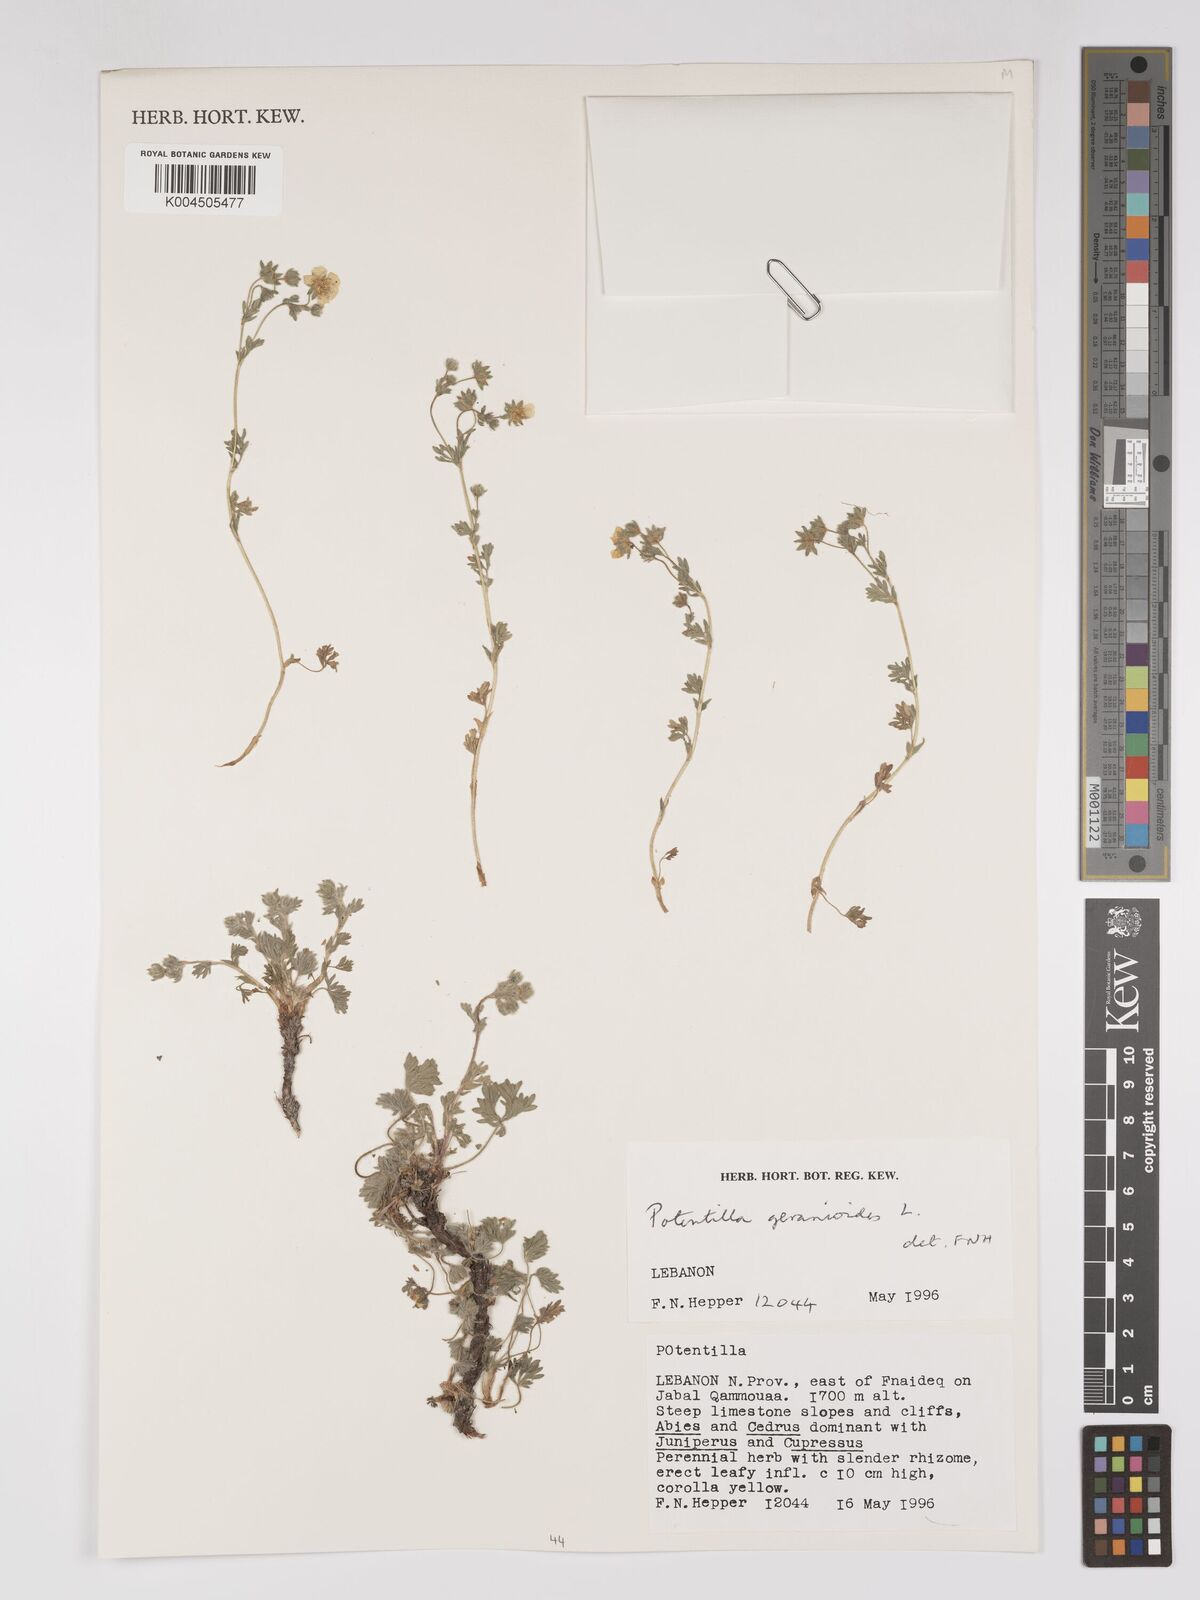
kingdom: Plantae
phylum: Tracheophyta
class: Magnoliopsida
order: Rosales
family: Rosaceae
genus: Potentilla
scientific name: Potentilla geranioides
